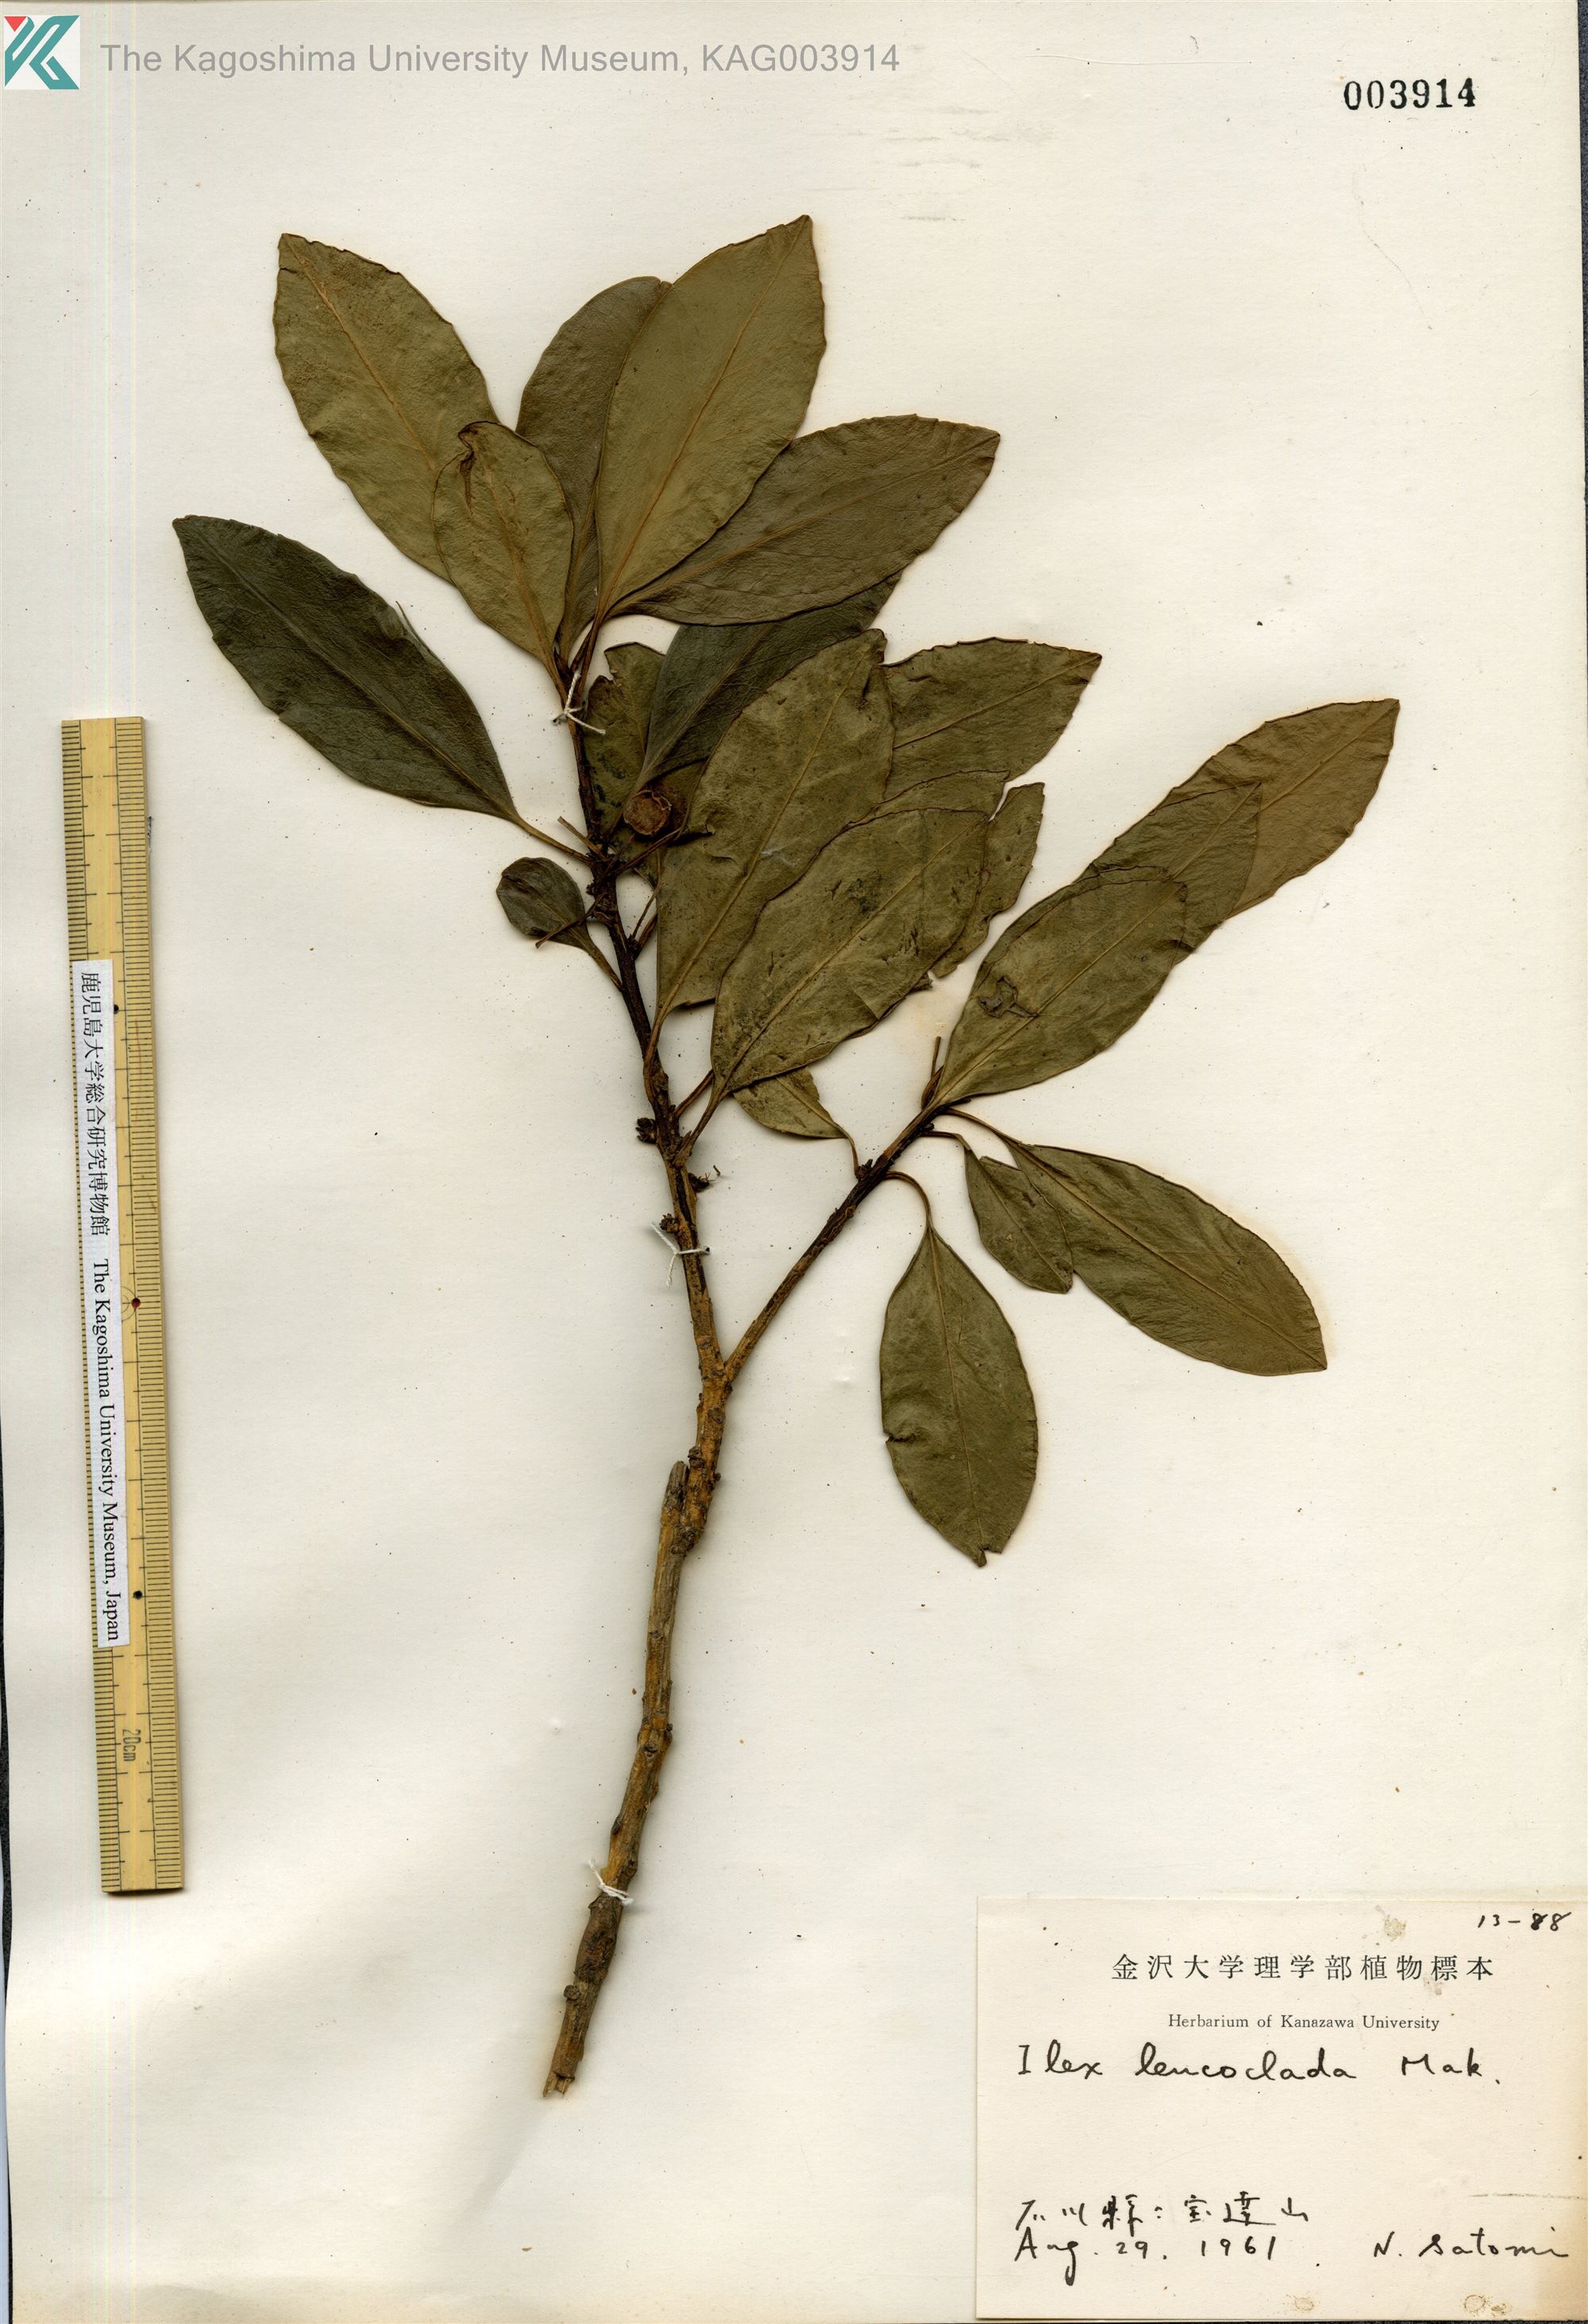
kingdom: Plantae
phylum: Tracheophyta
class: Magnoliopsida
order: Aquifoliales
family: Aquifoliaceae
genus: Ilex
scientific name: Ilex leucoclada
